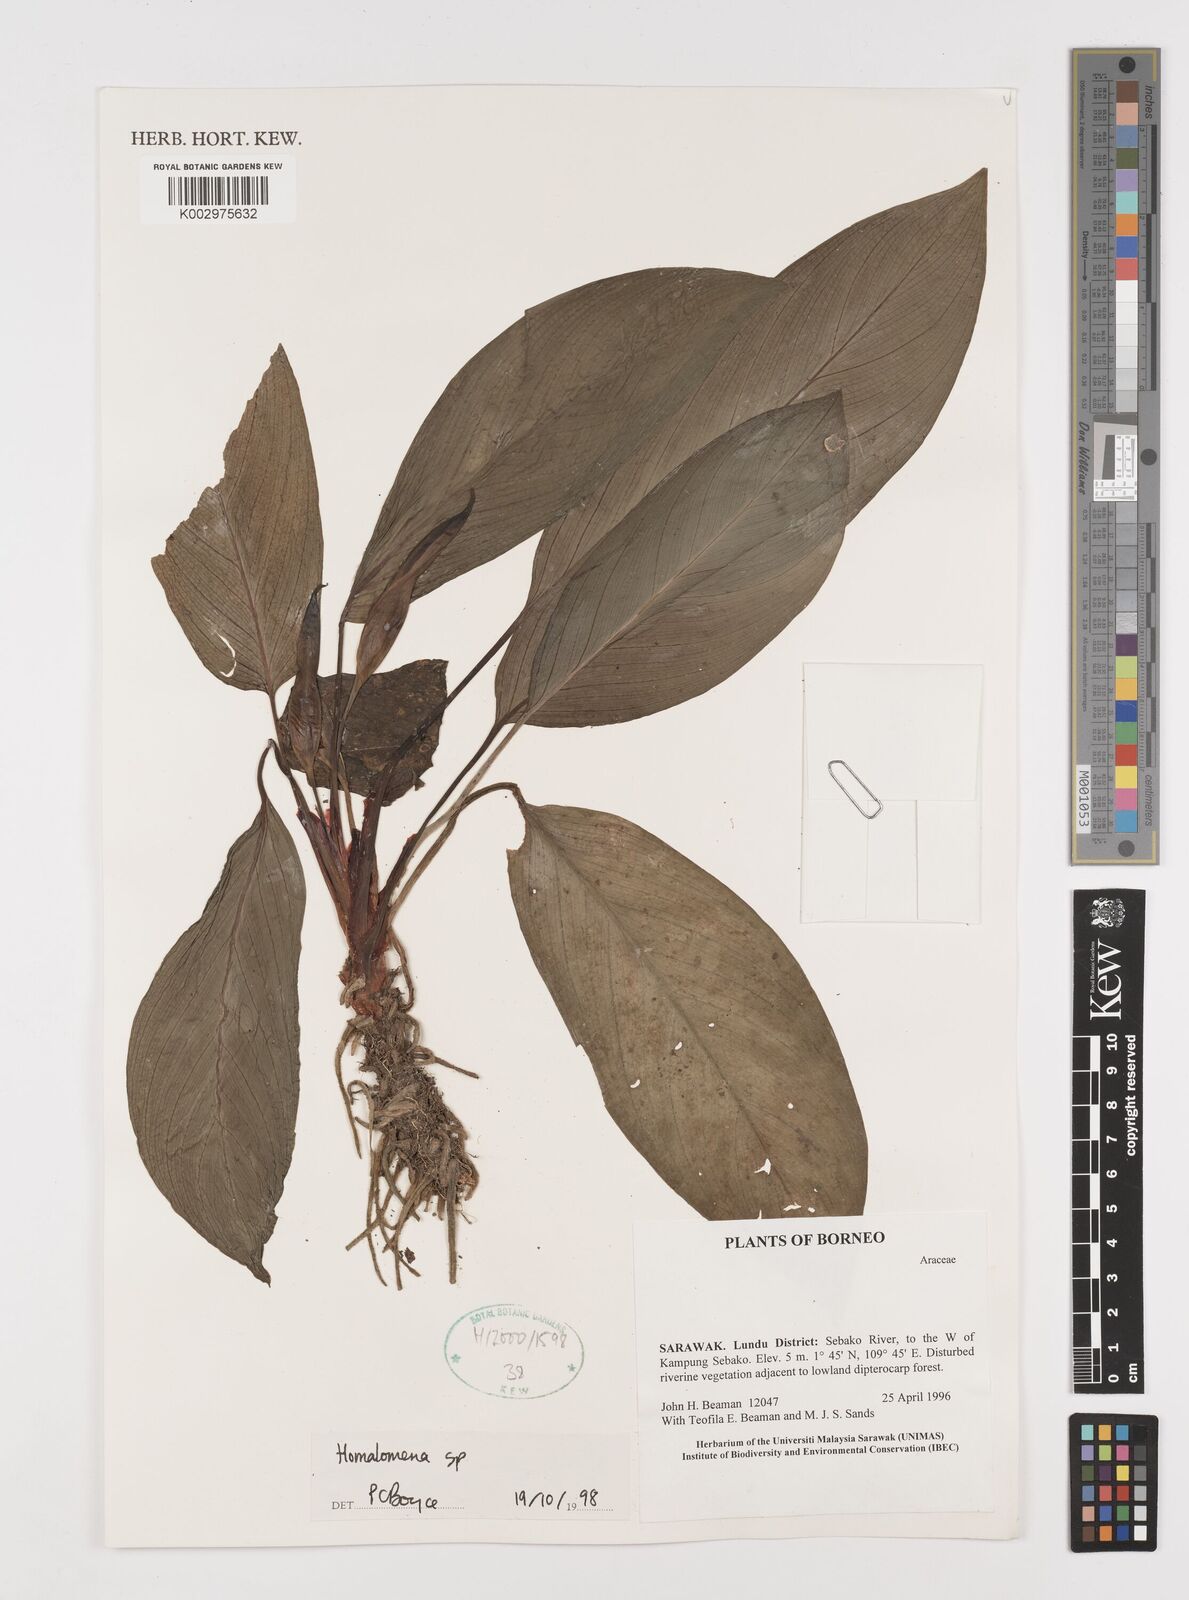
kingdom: Plantae
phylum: Tracheophyta
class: Liliopsida
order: Alismatales
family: Araceae
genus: Homalomena
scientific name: Homalomena
